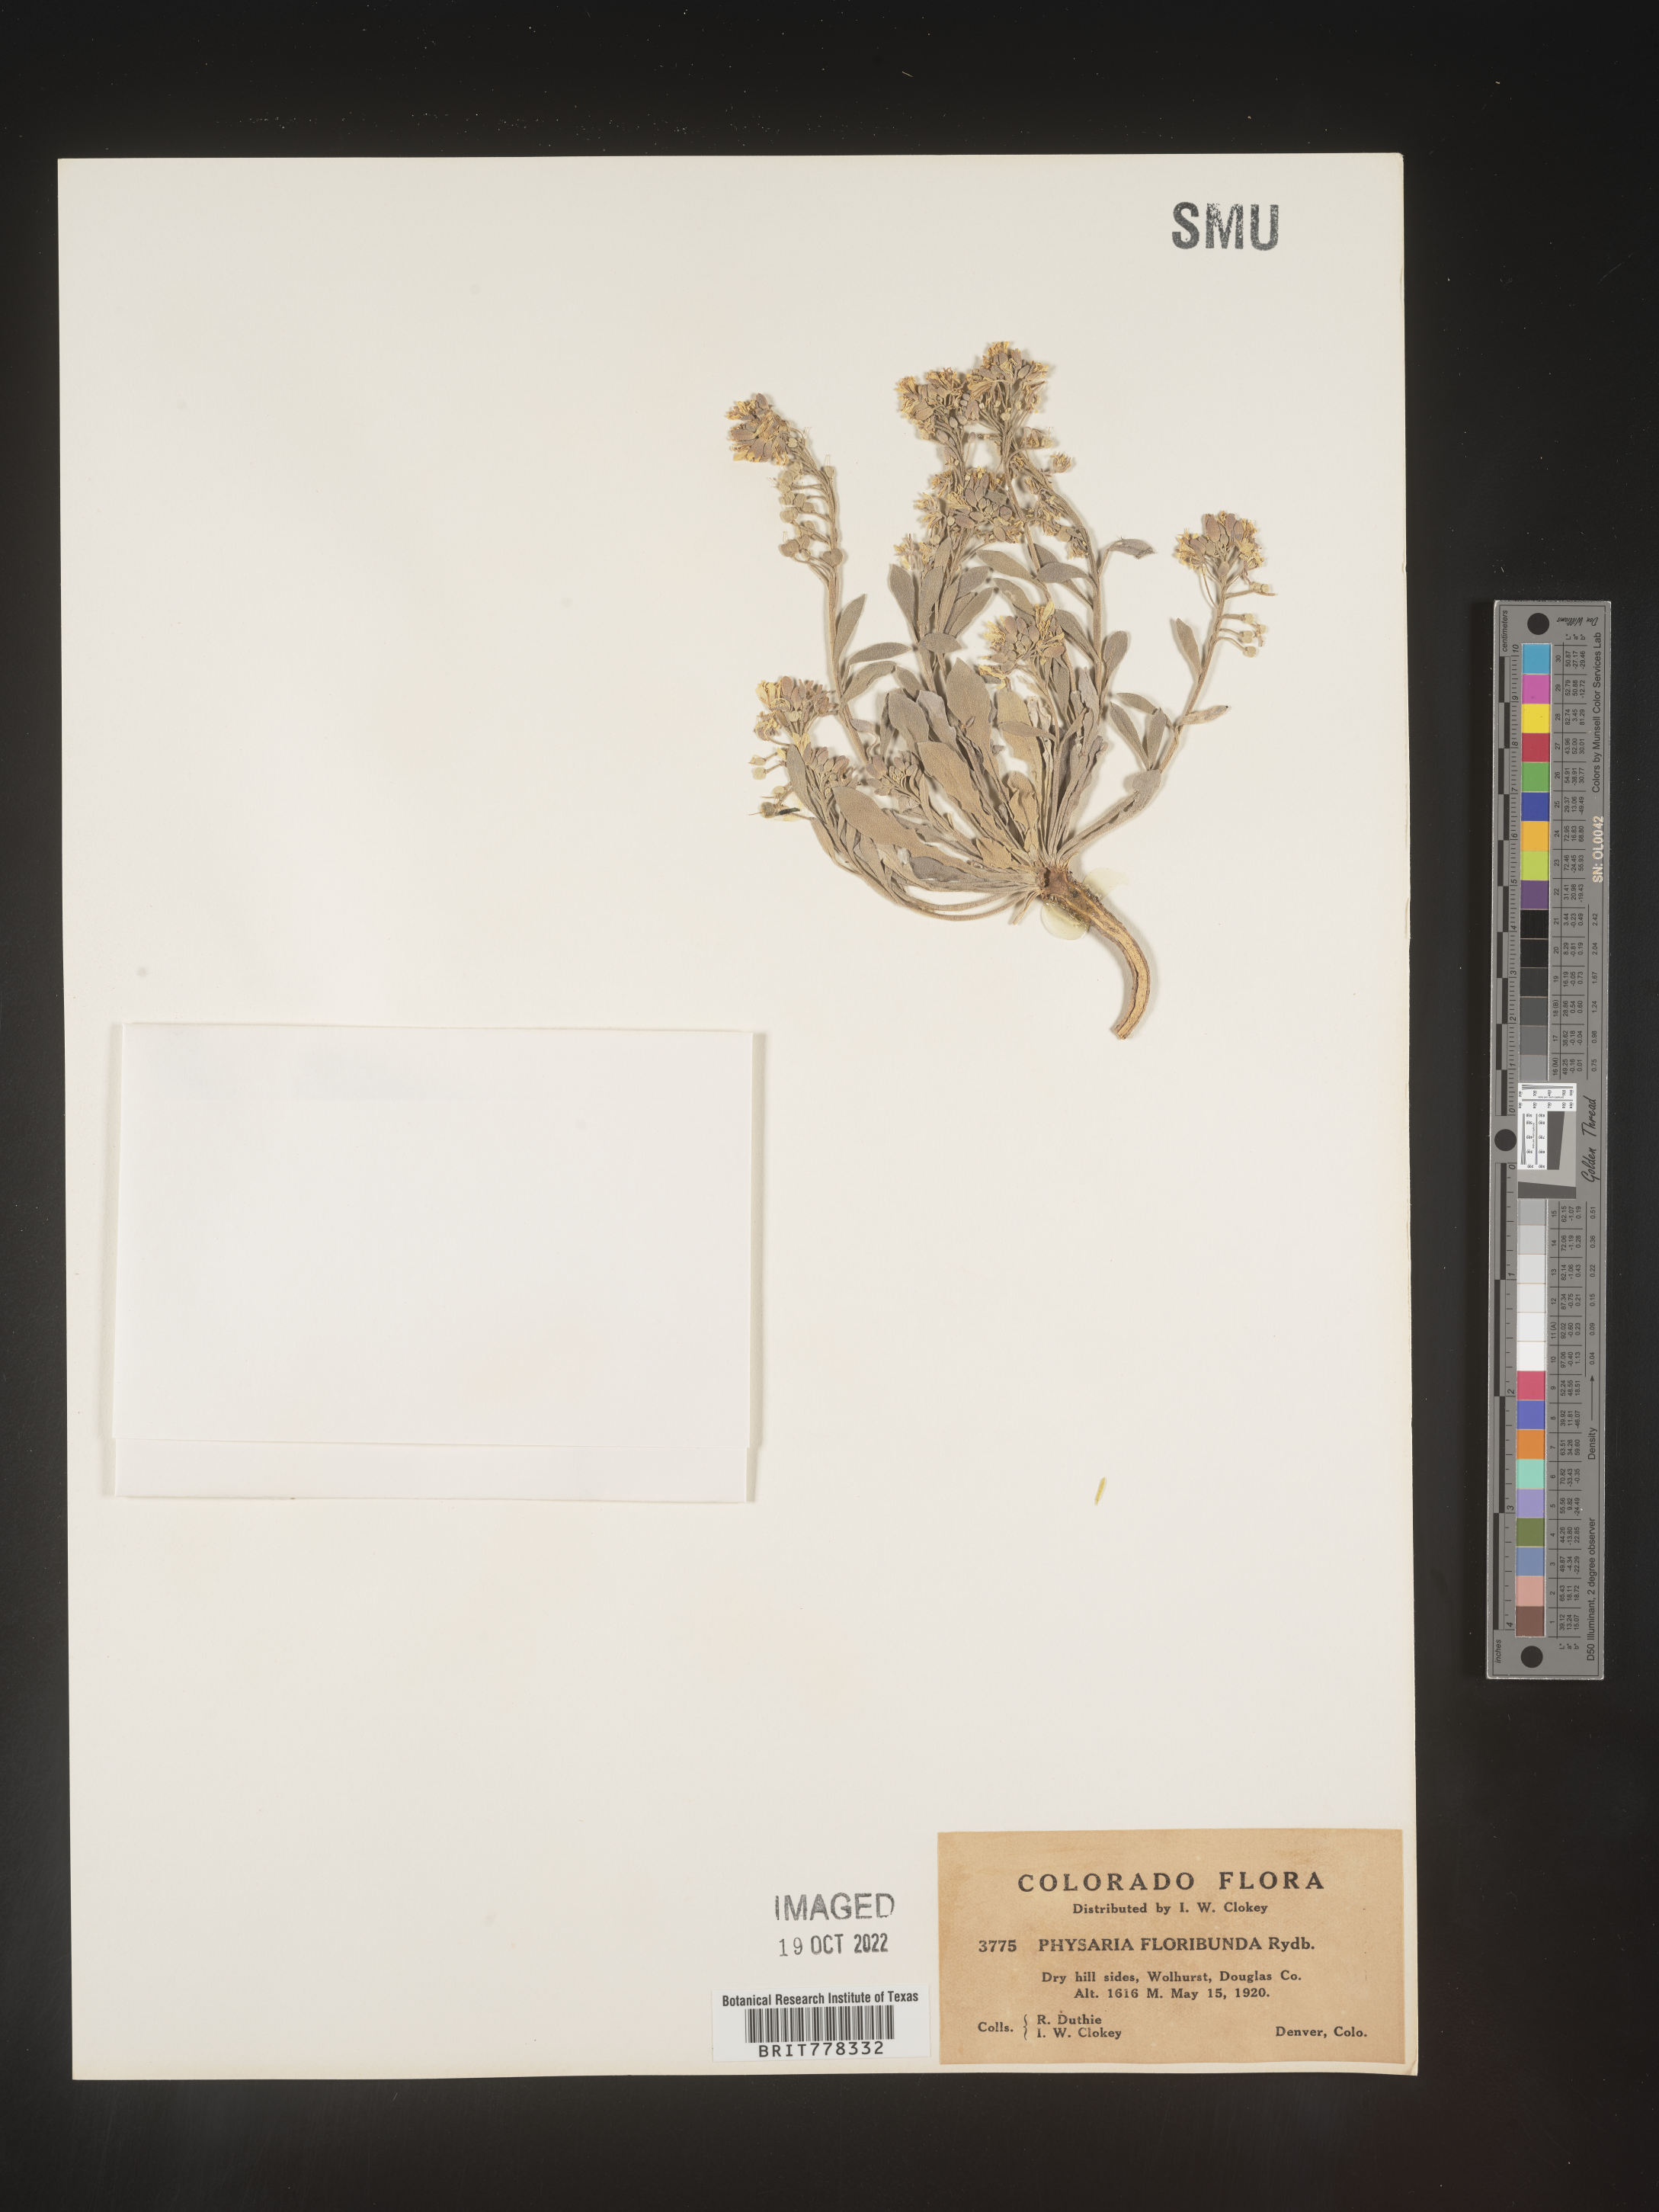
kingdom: Plantae
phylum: Tracheophyta
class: Magnoliopsida
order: Brassicales
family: Brassicaceae
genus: Physaria
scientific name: Physaria
